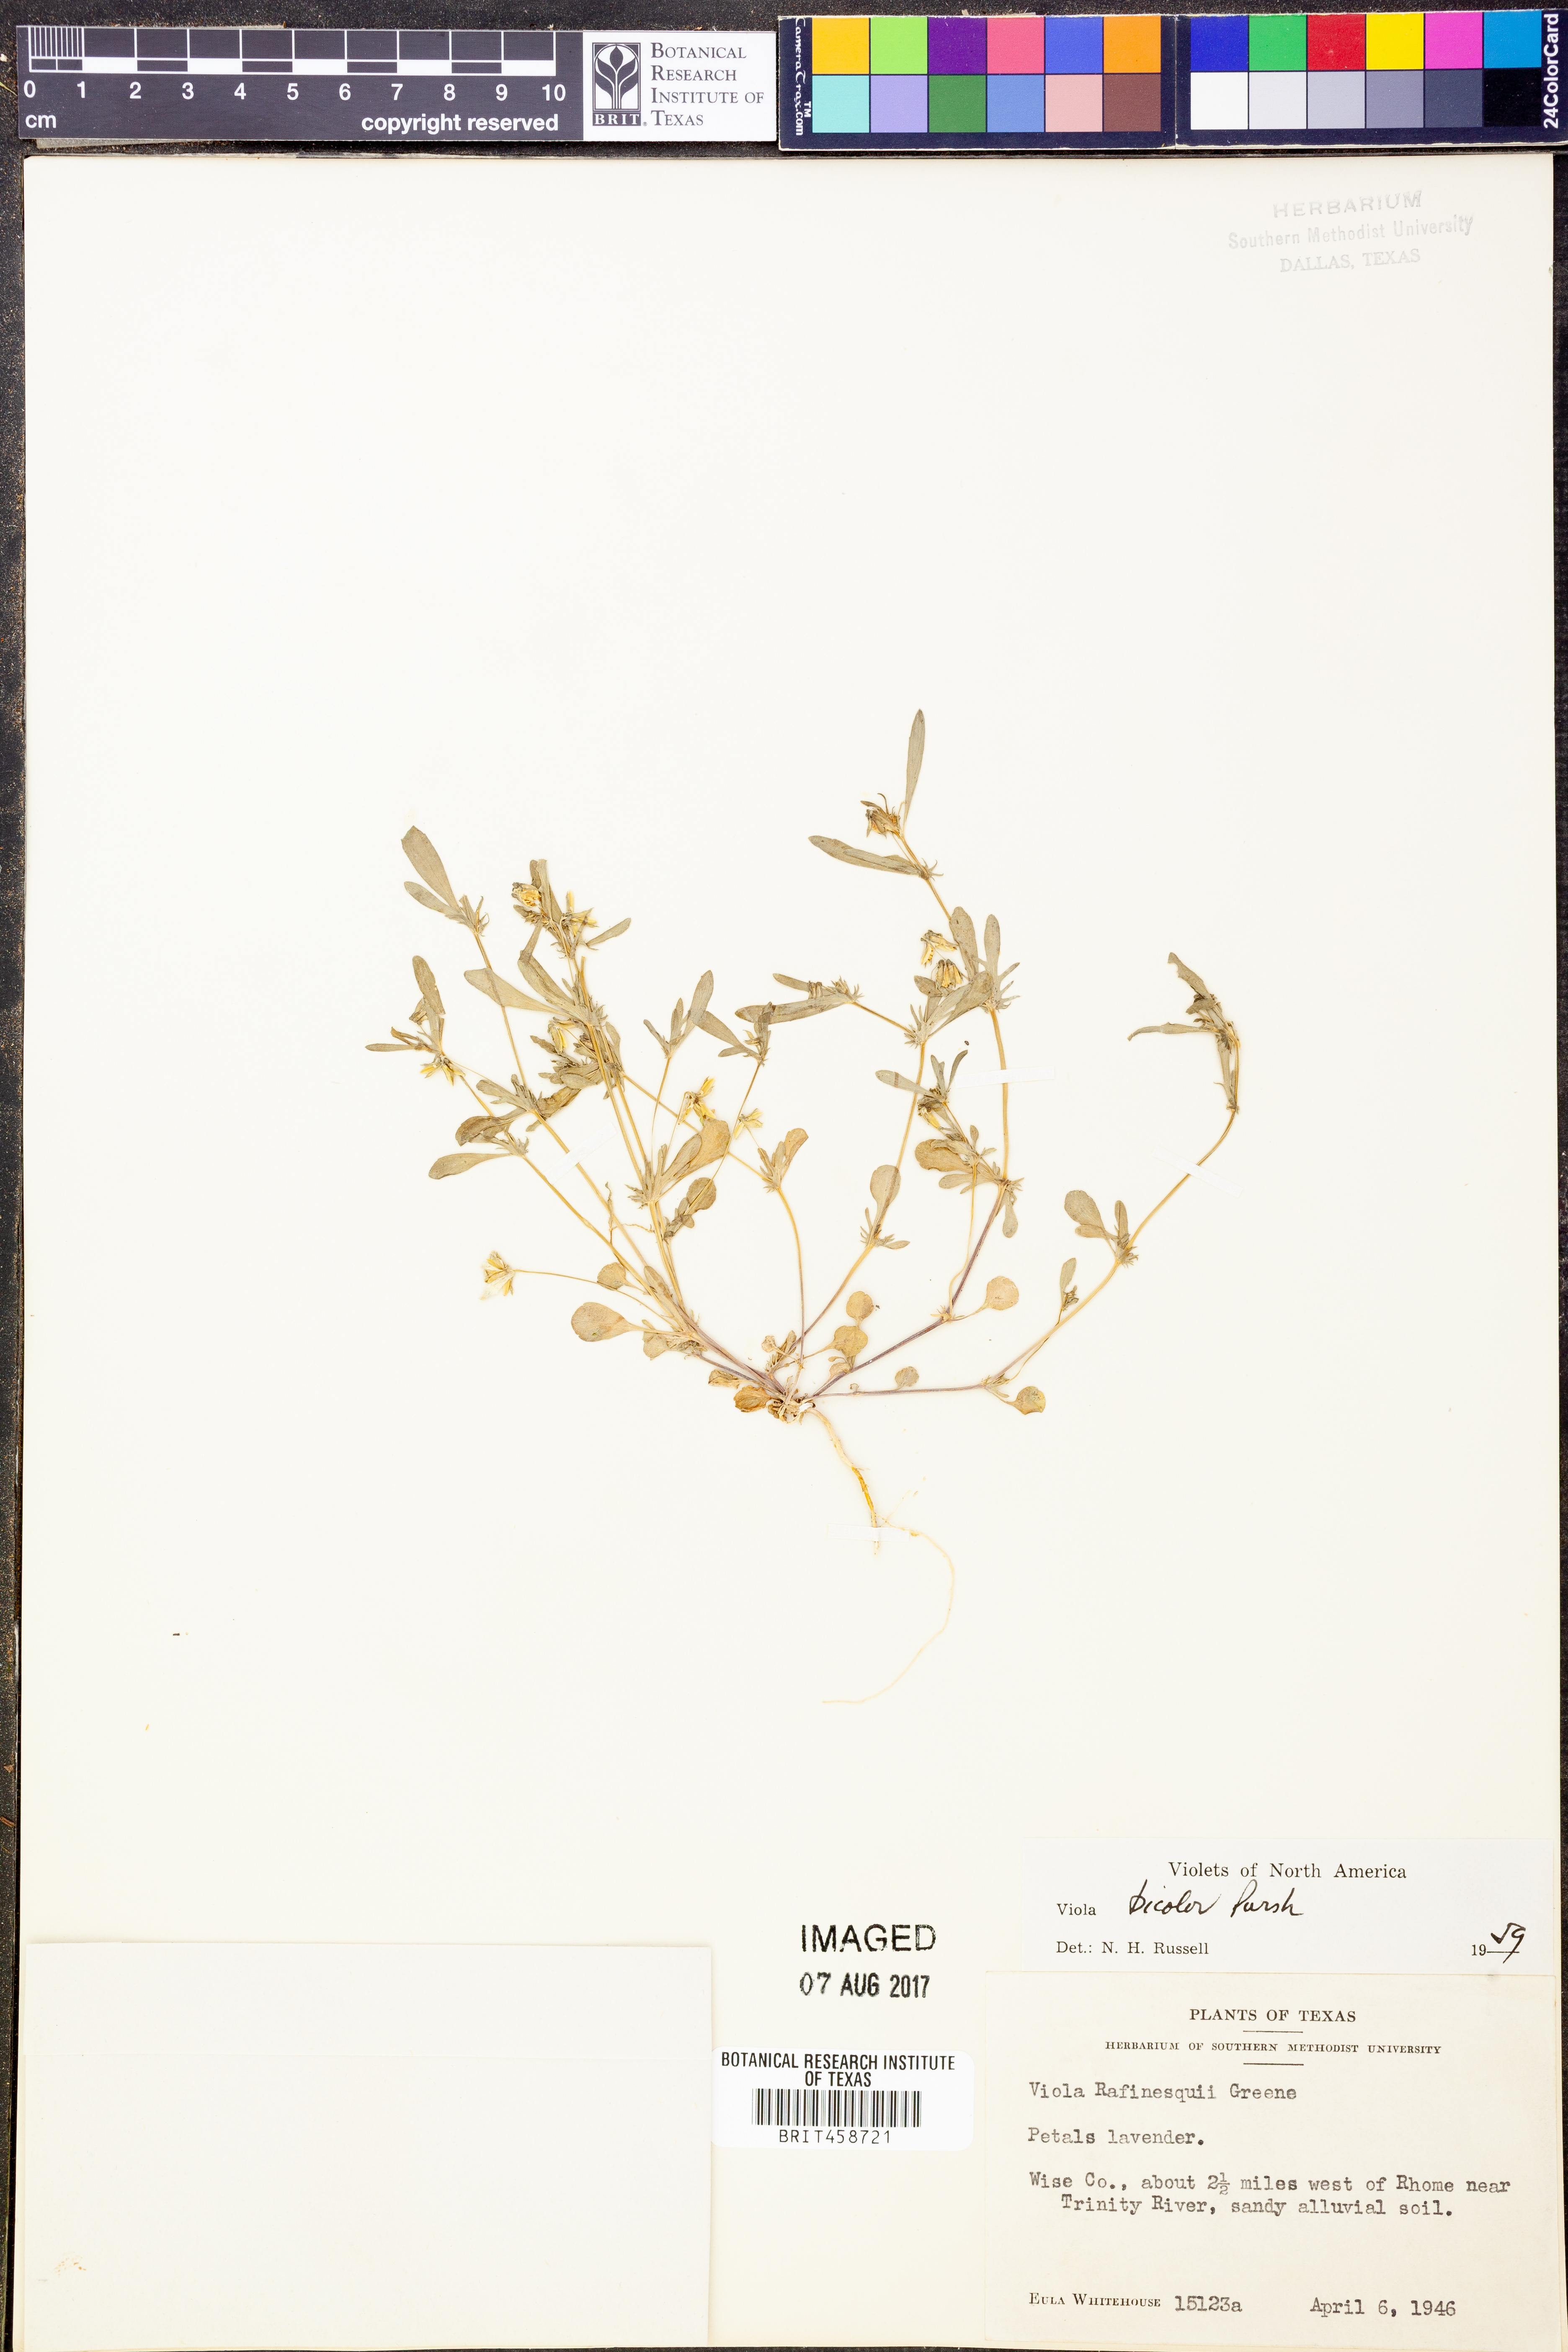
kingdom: Plantae
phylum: Tracheophyta
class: Magnoliopsida
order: Malpighiales
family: Violaceae
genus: Viola
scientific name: Viola rafinesquei
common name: American field pansy
